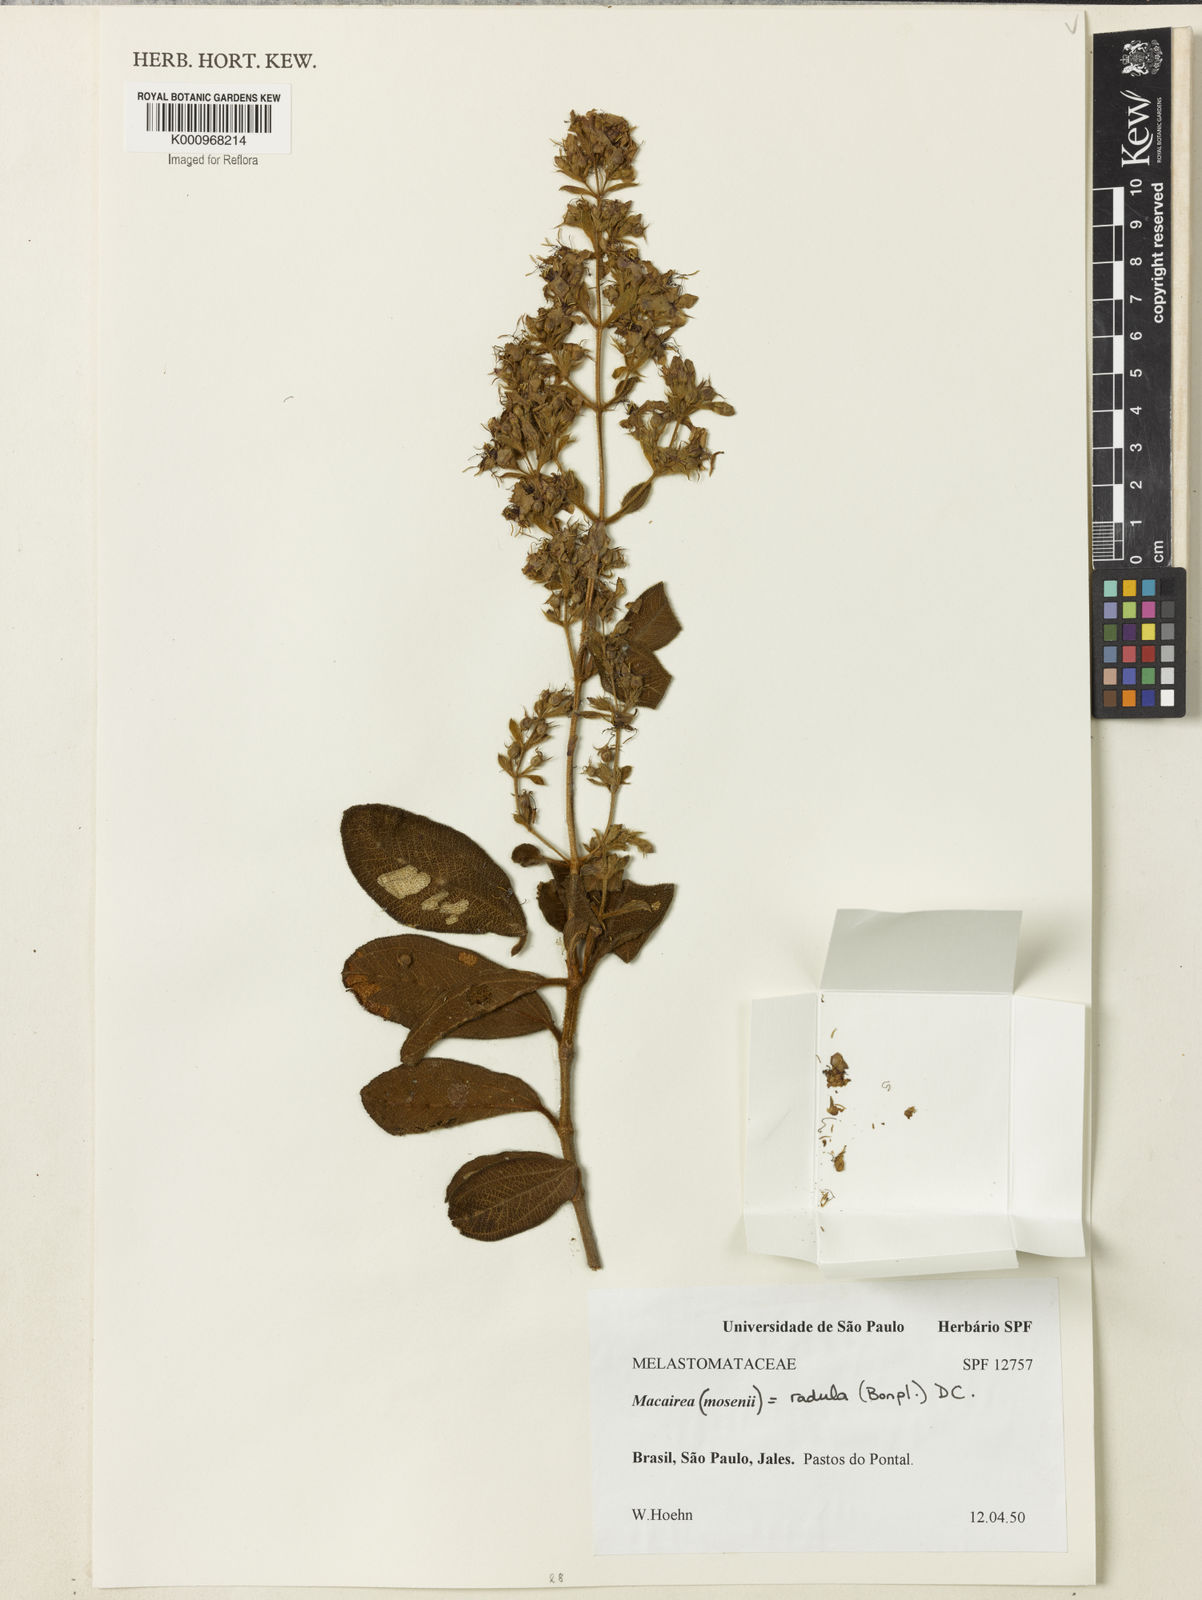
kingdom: Plantae
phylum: Tracheophyta
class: Magnoliopsida
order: Myrtales
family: Melastomataceae
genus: Macairea
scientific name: Macairea pachyphylla
